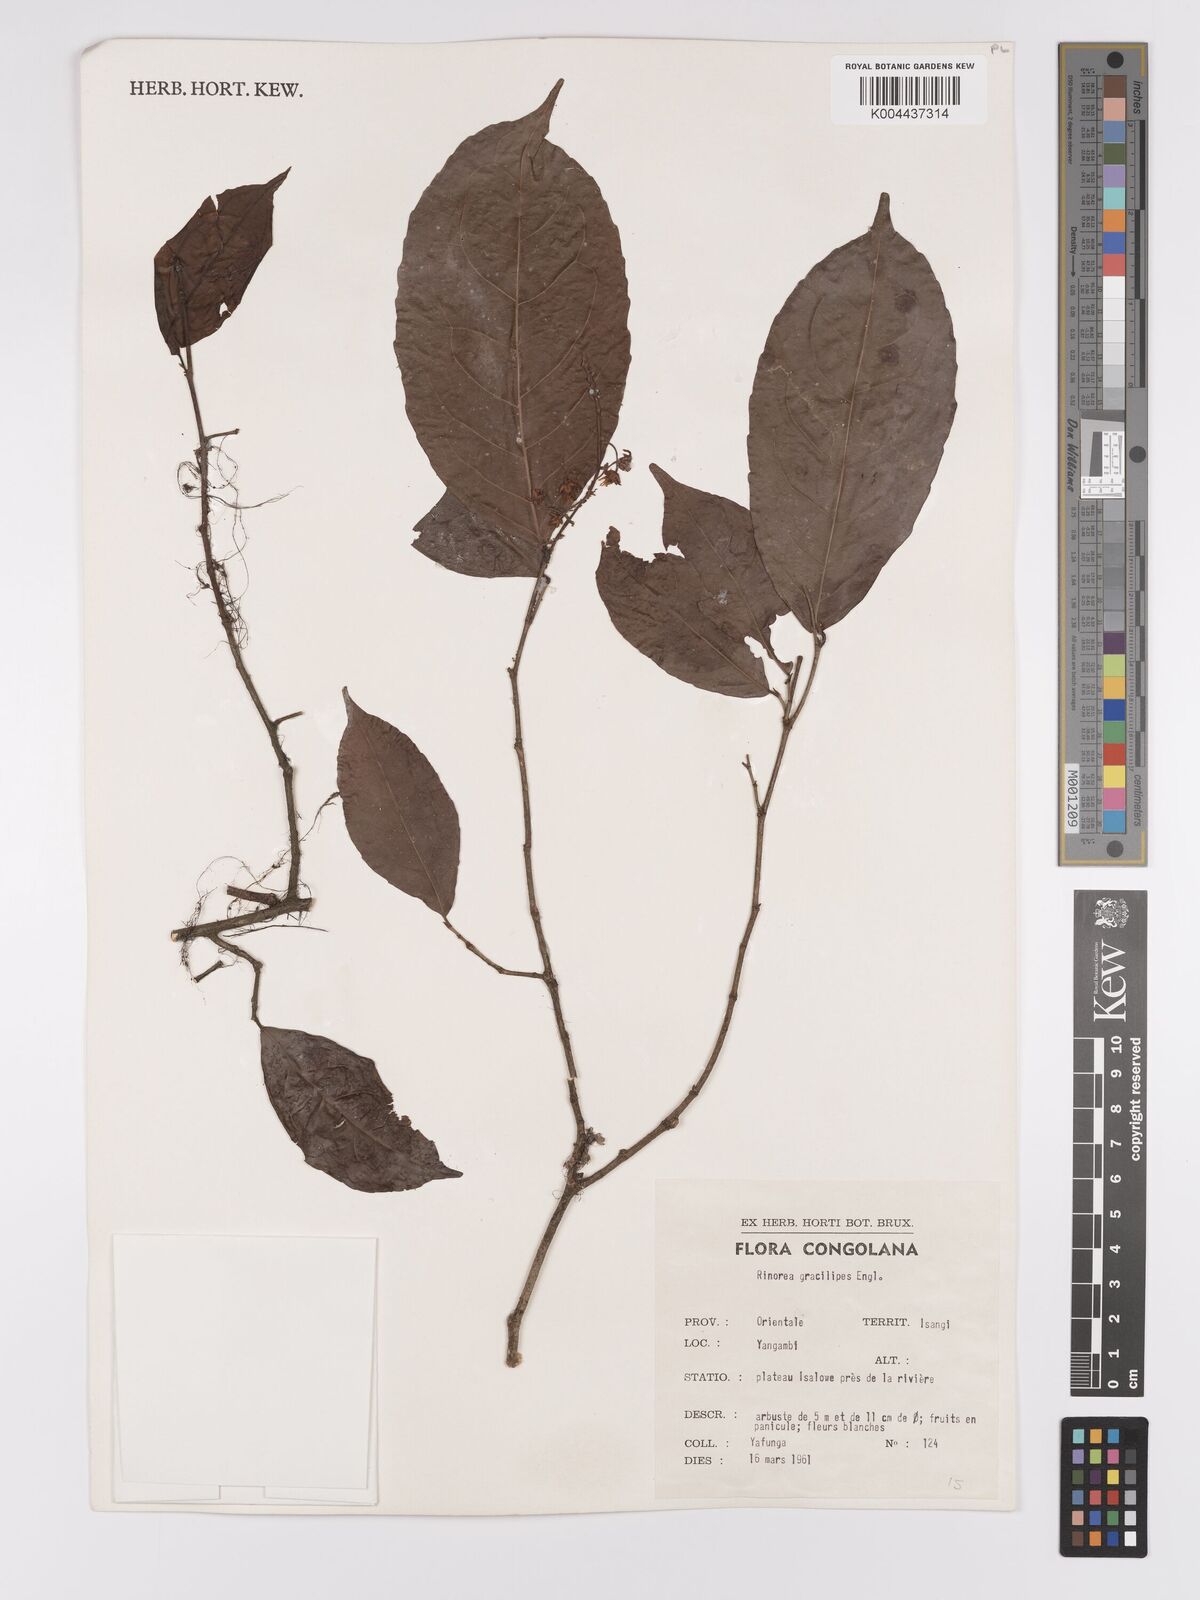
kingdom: Plantae
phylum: Tracheophyta
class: Magnoliopsida
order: Malpighiales
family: Violaceae
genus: Rinorea
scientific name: Rinorea angustifolia
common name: White violet-bush
